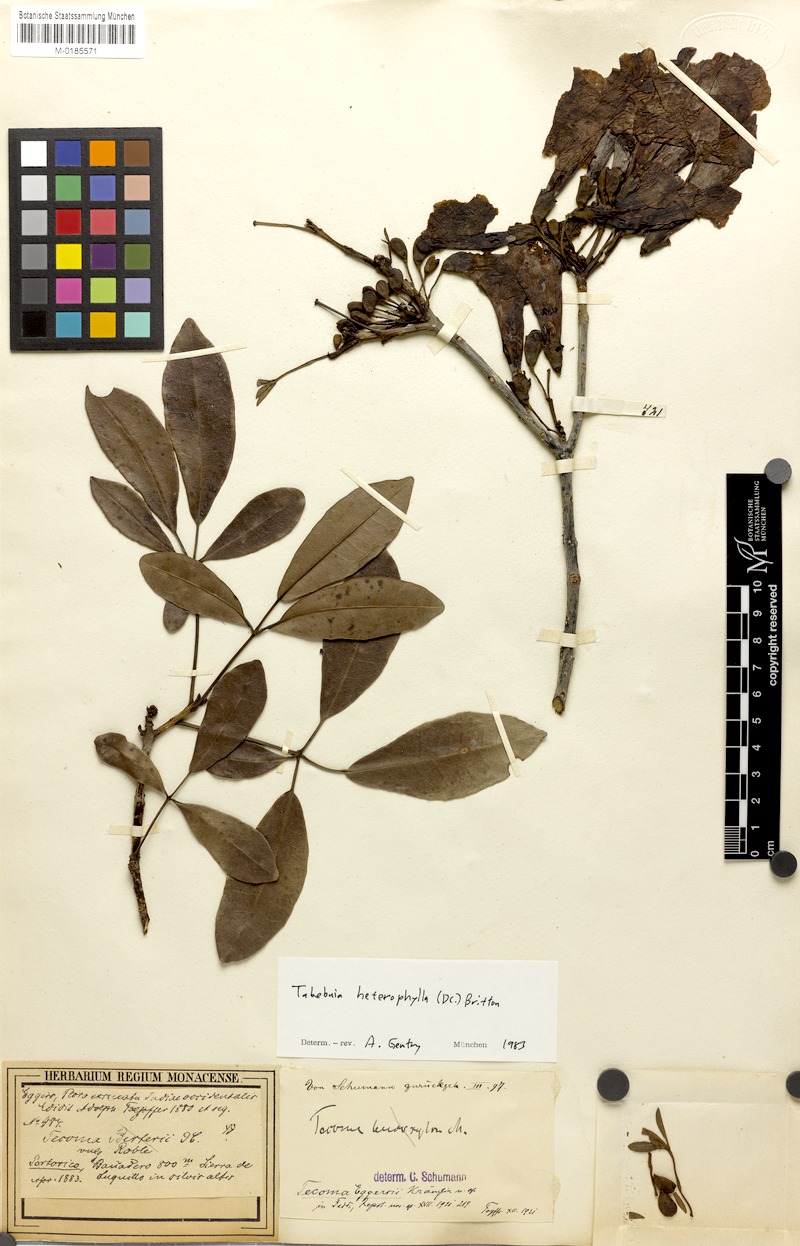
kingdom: Plantae
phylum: Tracheophyta
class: Magnoliopsida
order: Lamiales
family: Bignoniaceae
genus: Tabebuia
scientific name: Tabebuia heterophylla
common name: White cedar
